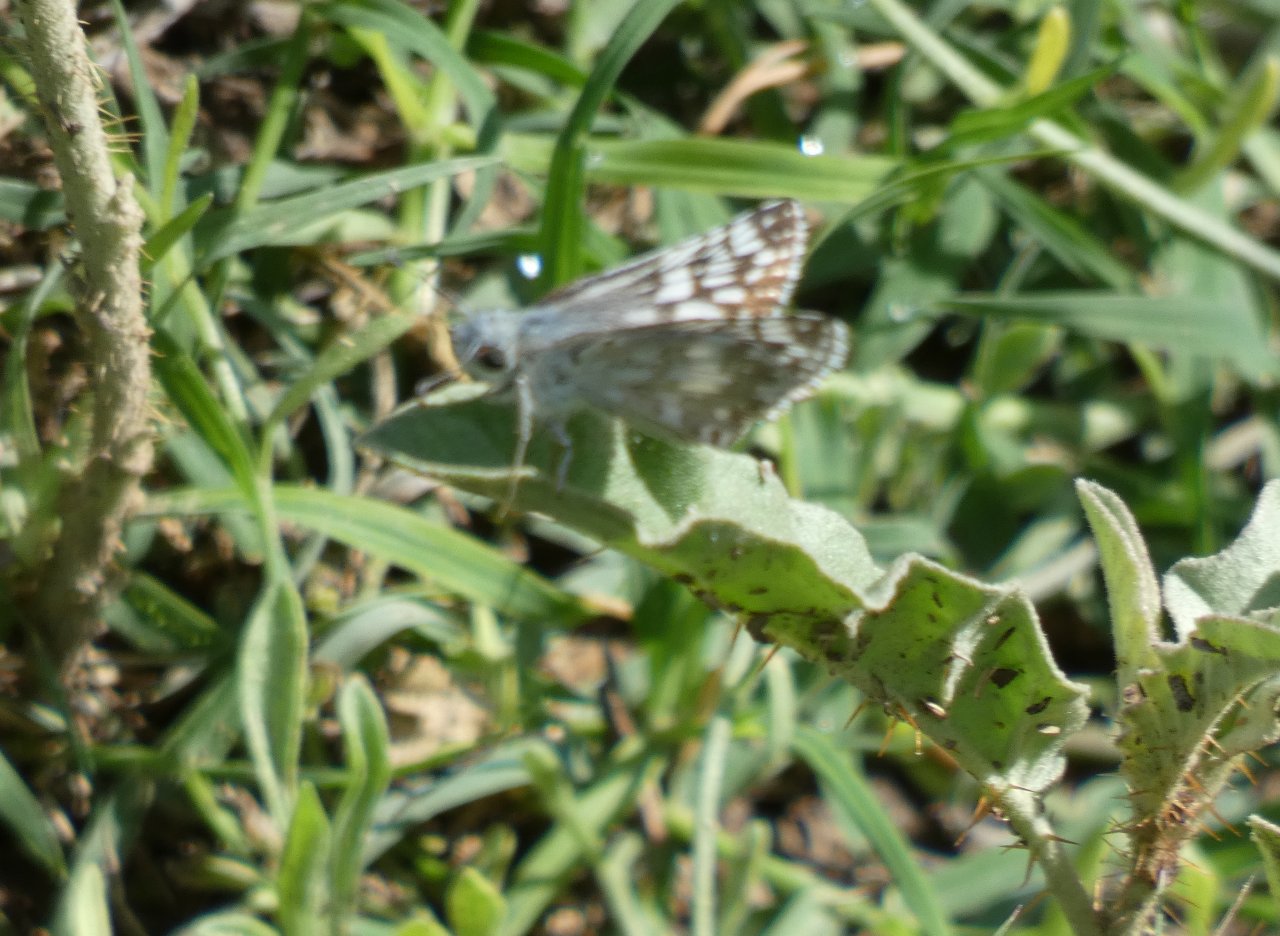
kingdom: Animalia
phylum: Arthropoda
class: Insecta
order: Lepidoptera
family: Hesperiidae
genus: Pyrgus
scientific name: Pyrgus communis
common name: Common Checkered-Skipper
